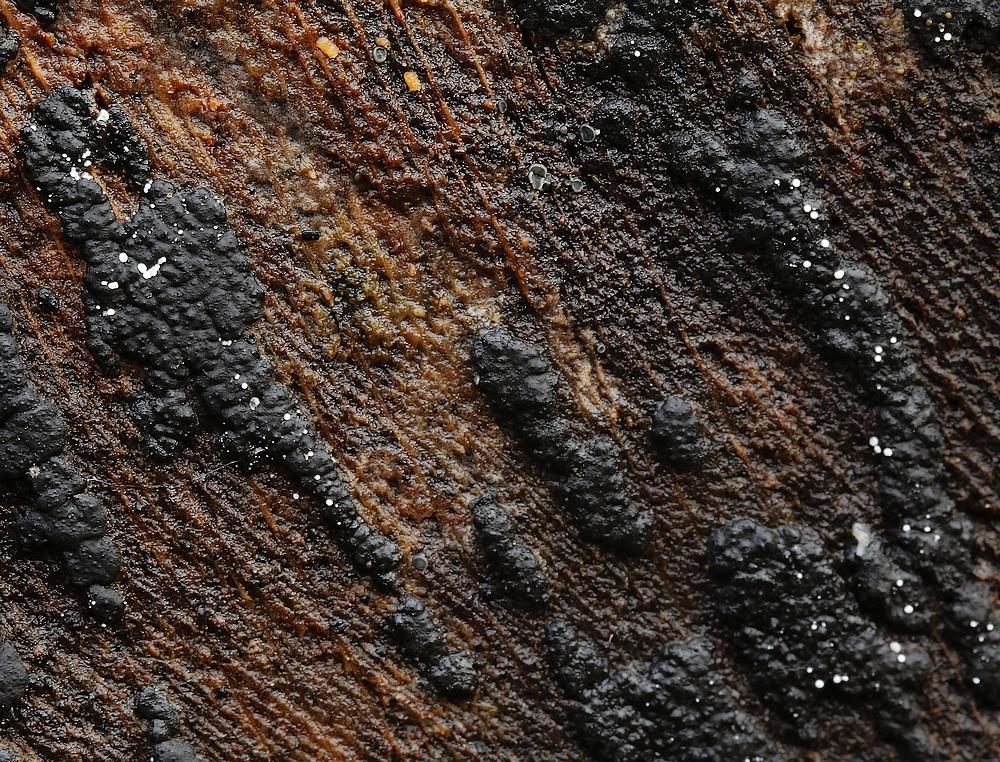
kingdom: Fungi
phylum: Ascomycota
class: Leotiomycetes
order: Helotiales
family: Hyaloscyphaceae
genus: Polydesmia
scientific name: Polydesmia pruinosa
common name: dunskive
